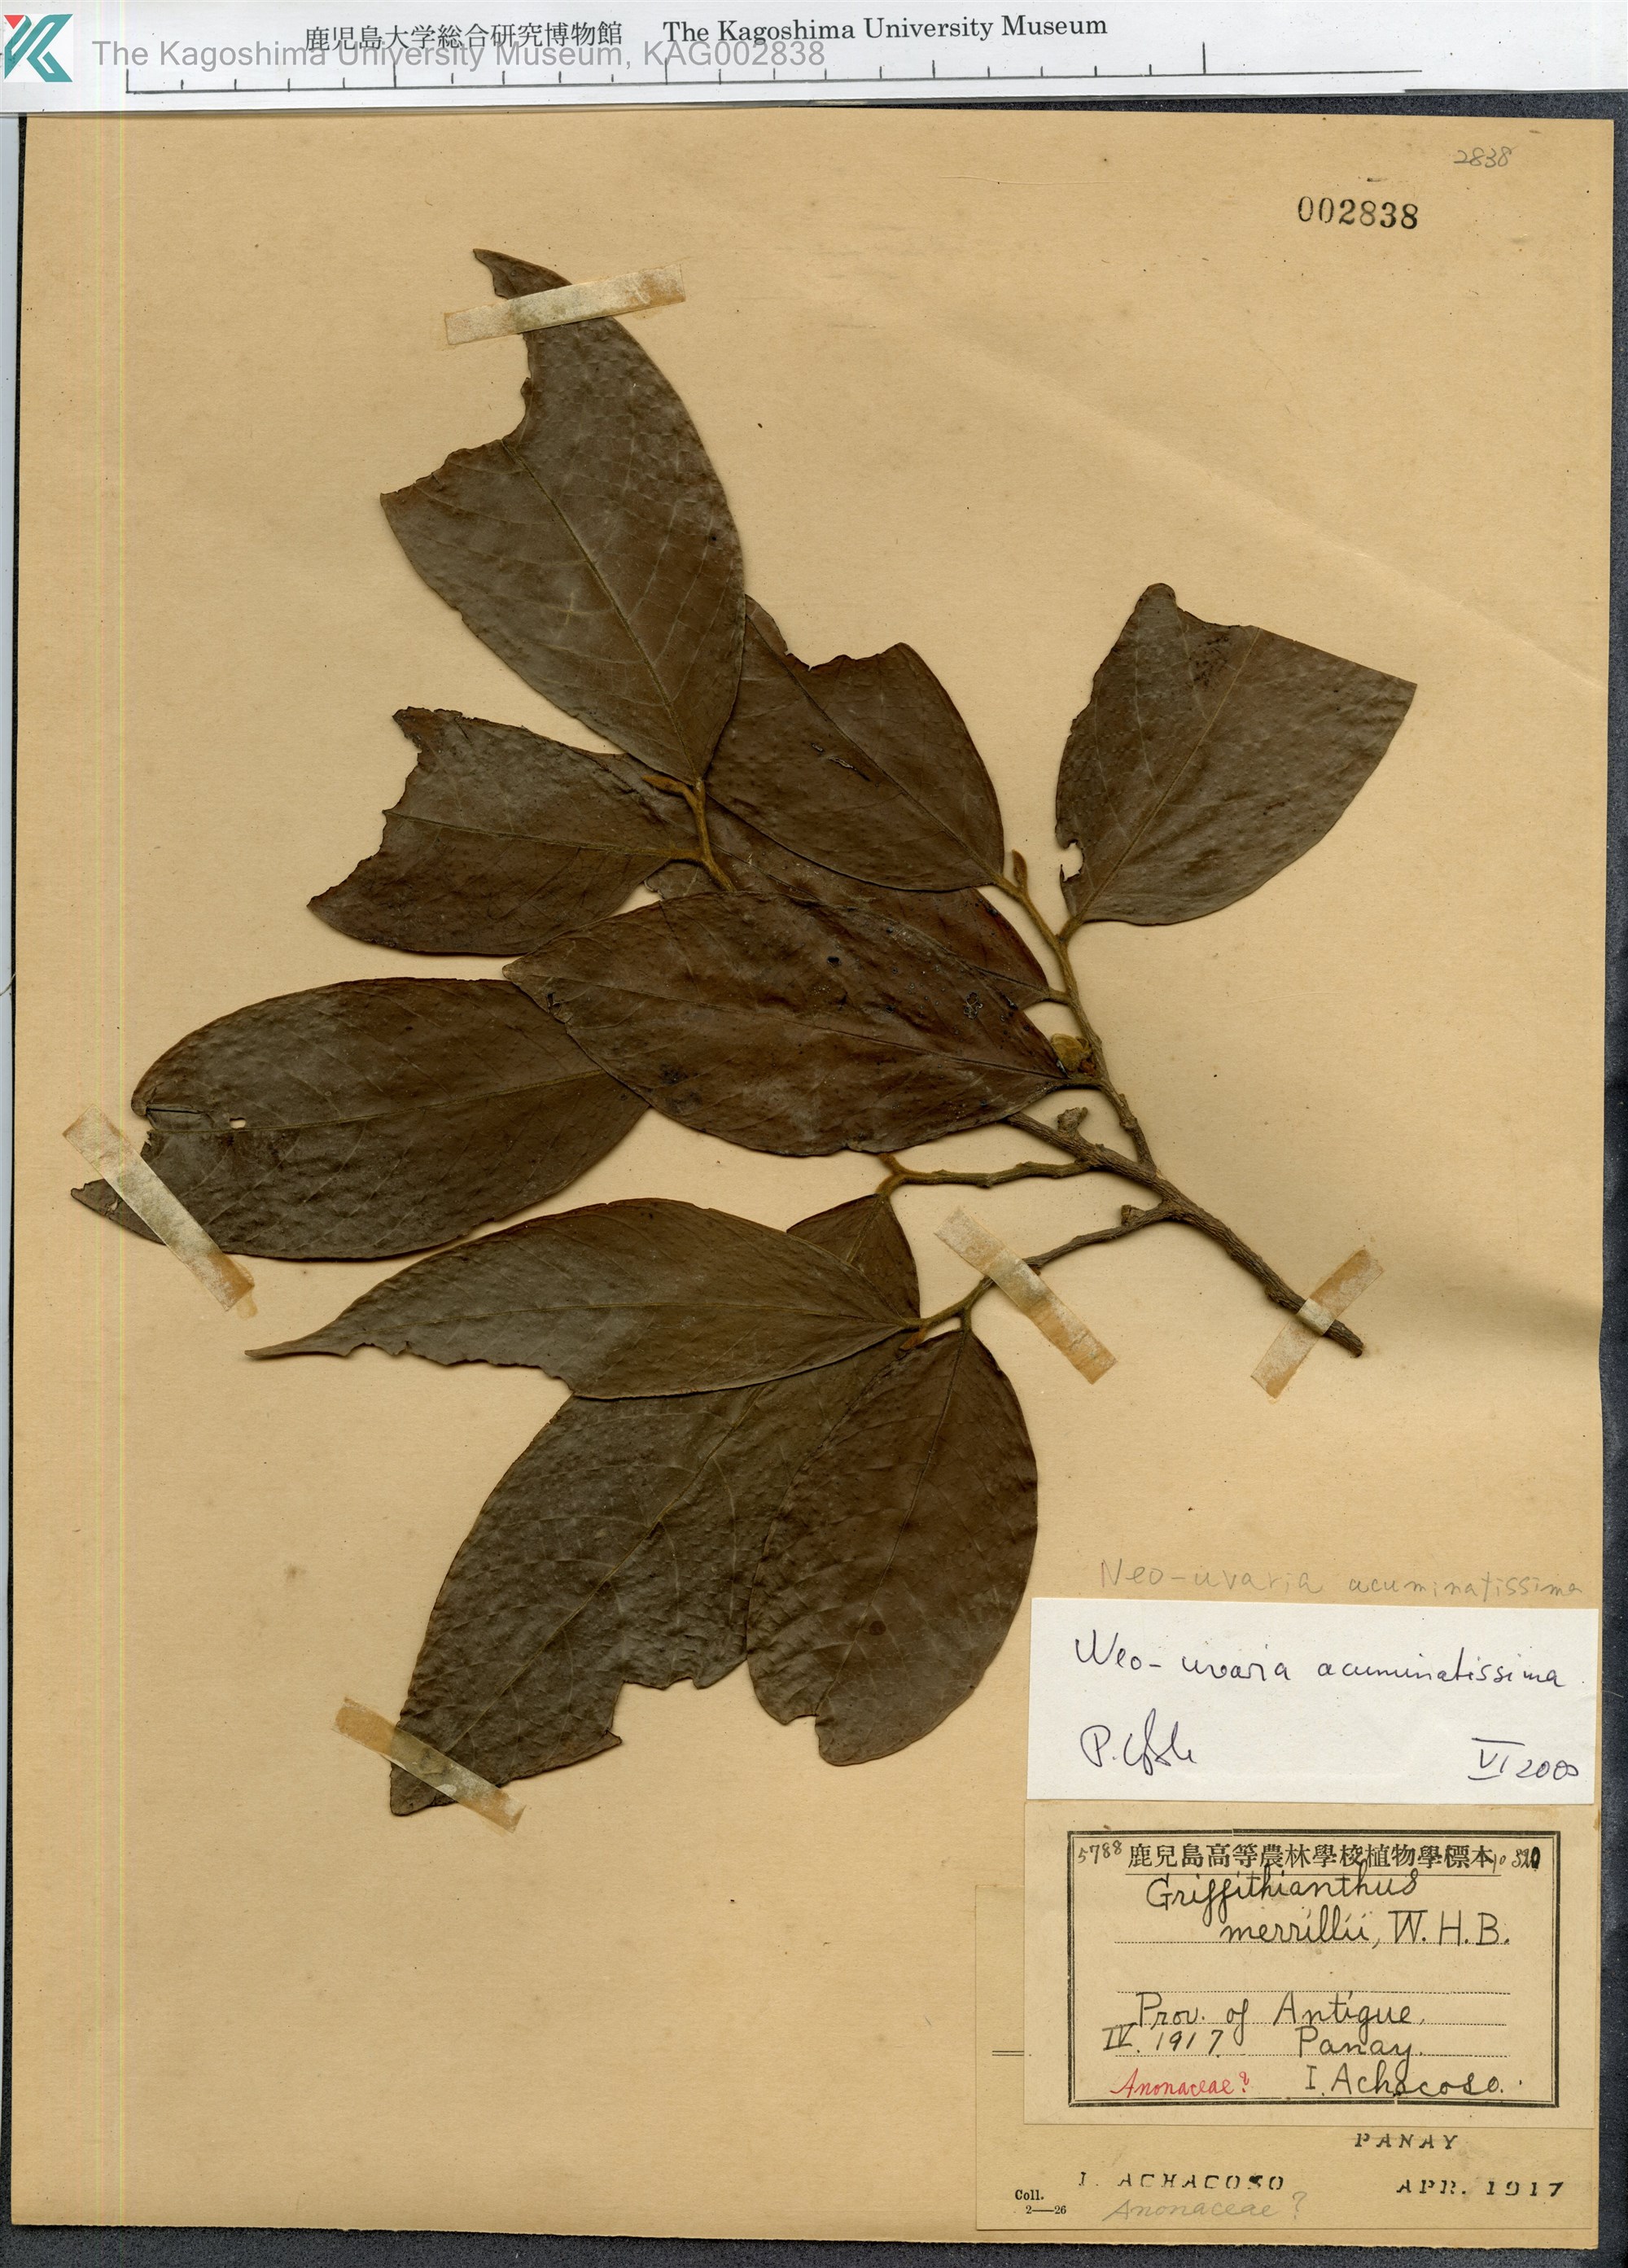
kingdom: Plantae
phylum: Tracheophyta
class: Magnoliopsida
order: Magnoliales
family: Annonaceae
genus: Neouvaria
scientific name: Neouvaria acuminatissima
